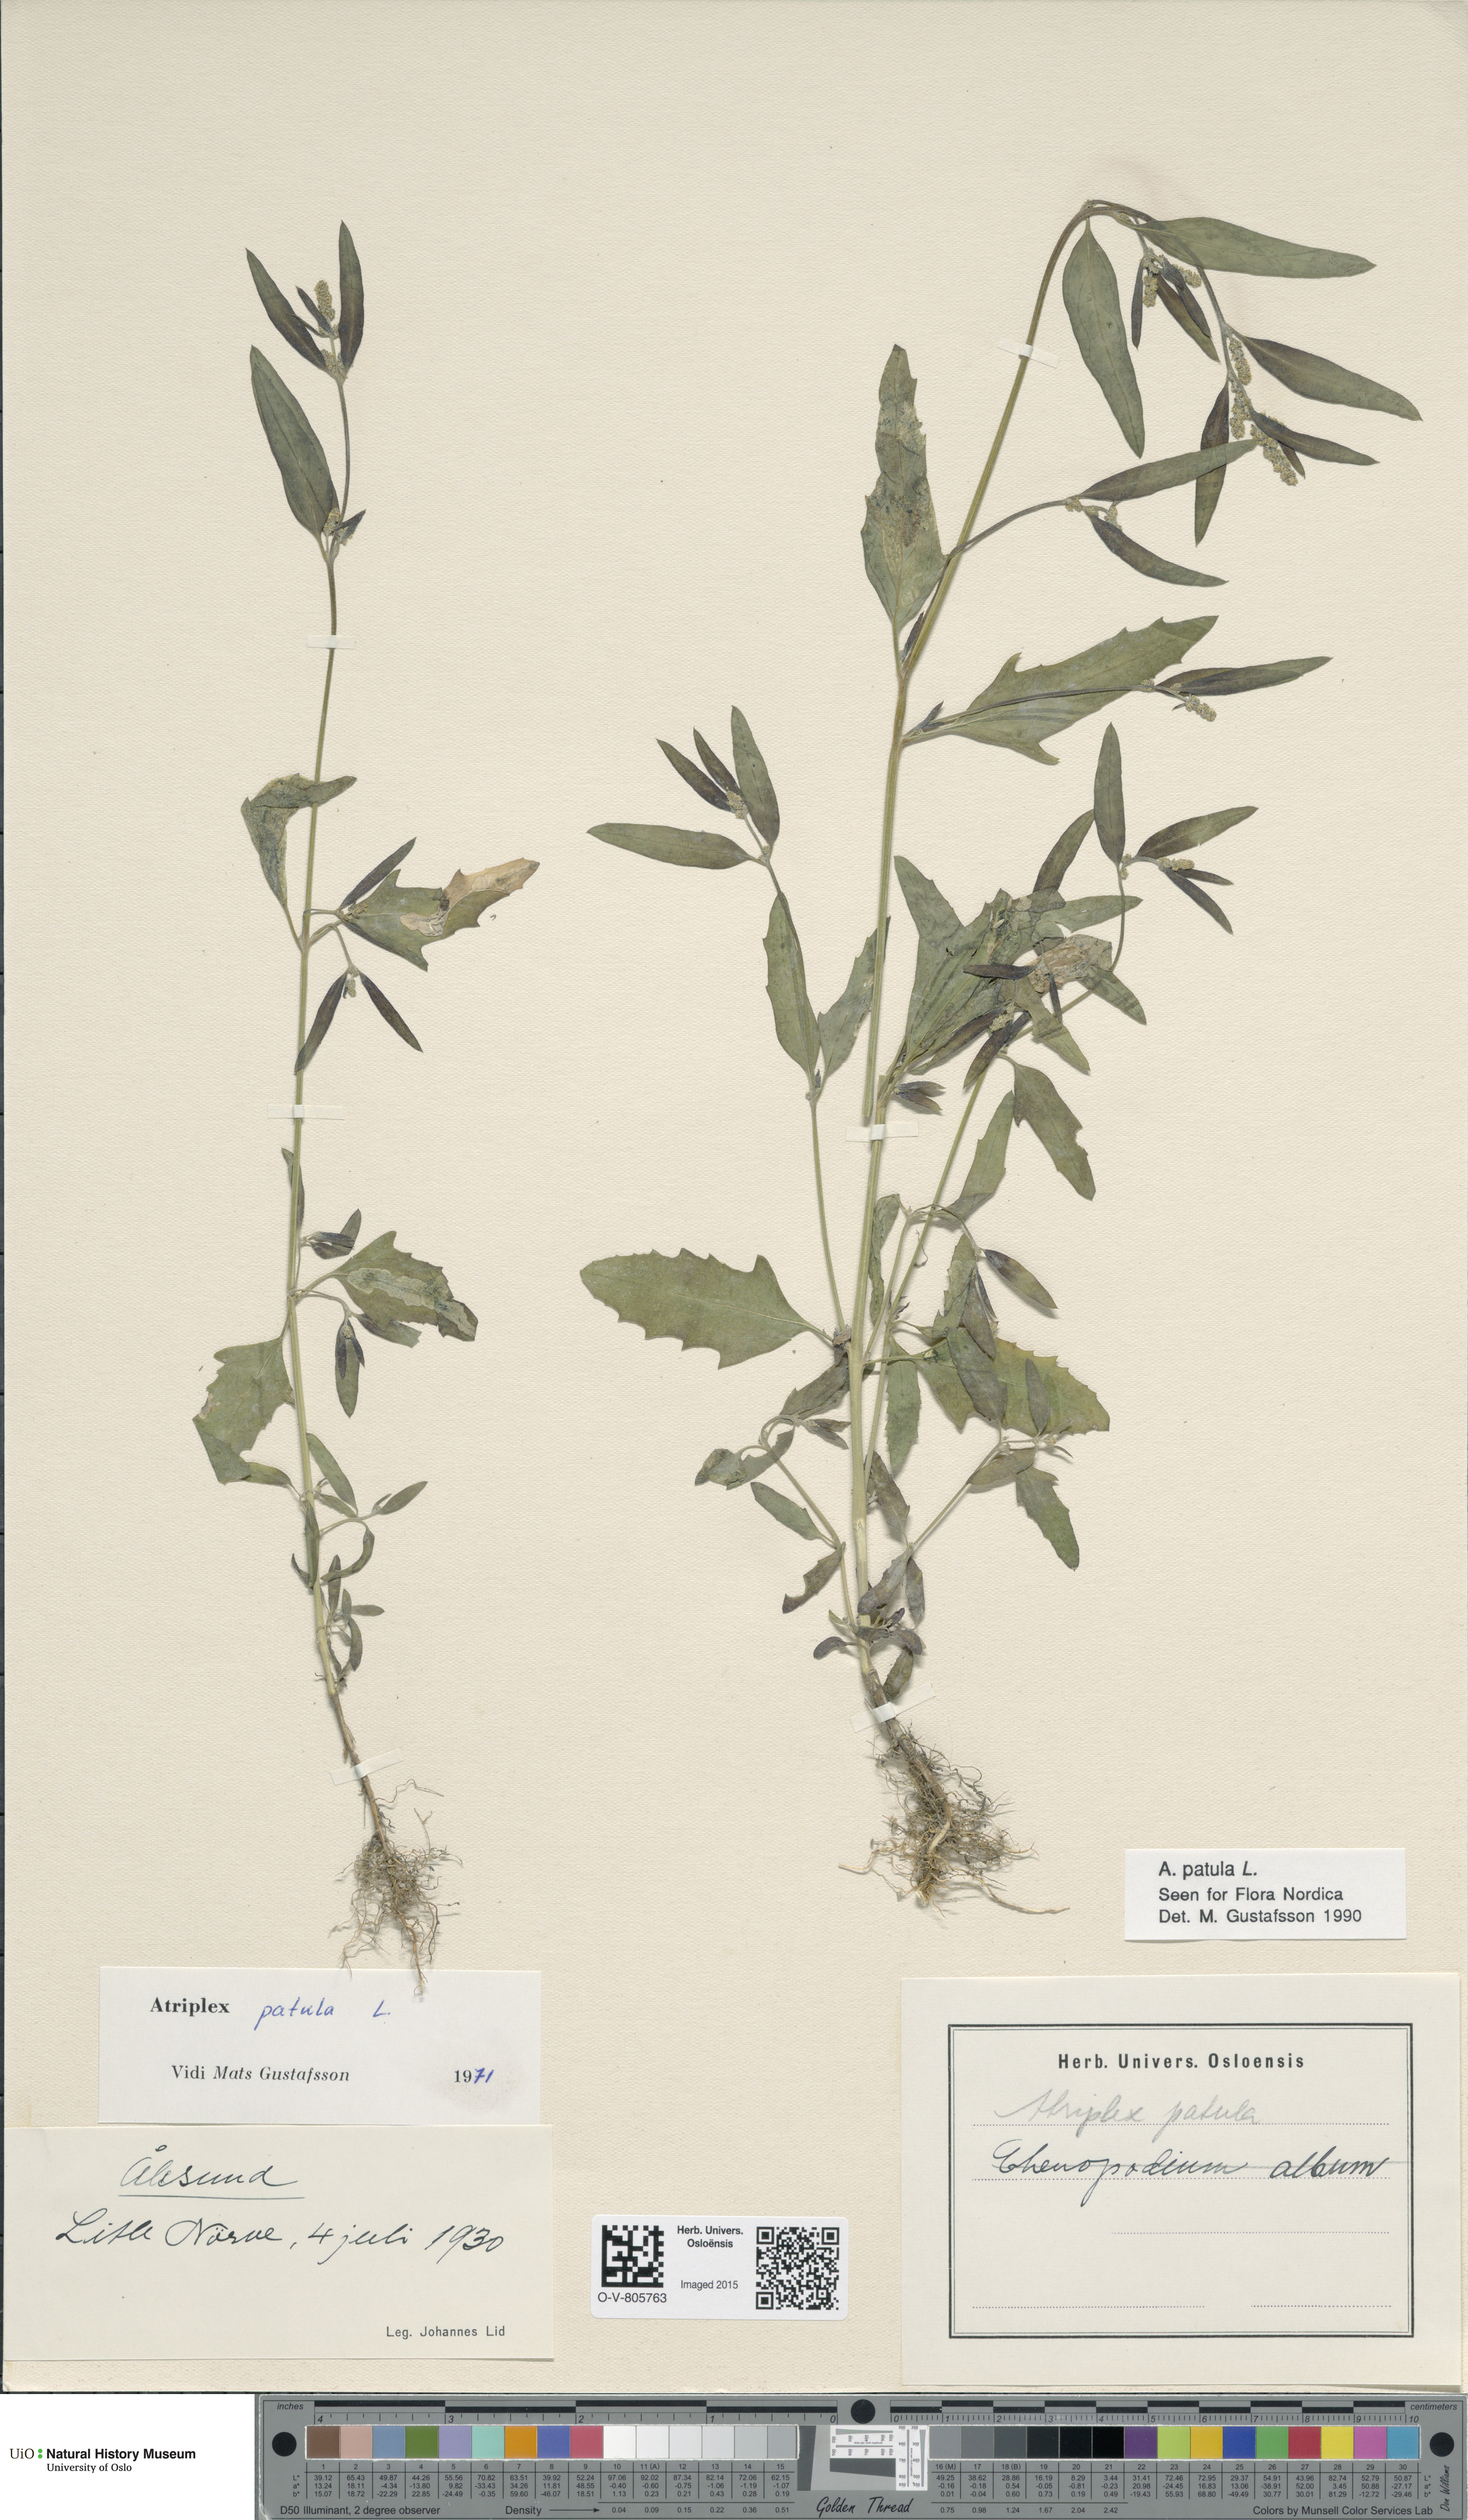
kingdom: Plantae
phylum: Tracheophyta
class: Magnoliopsida
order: Caryophyllales
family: Amaranthaceae
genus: Atriplex
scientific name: Atriplex patula
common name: Common orache
